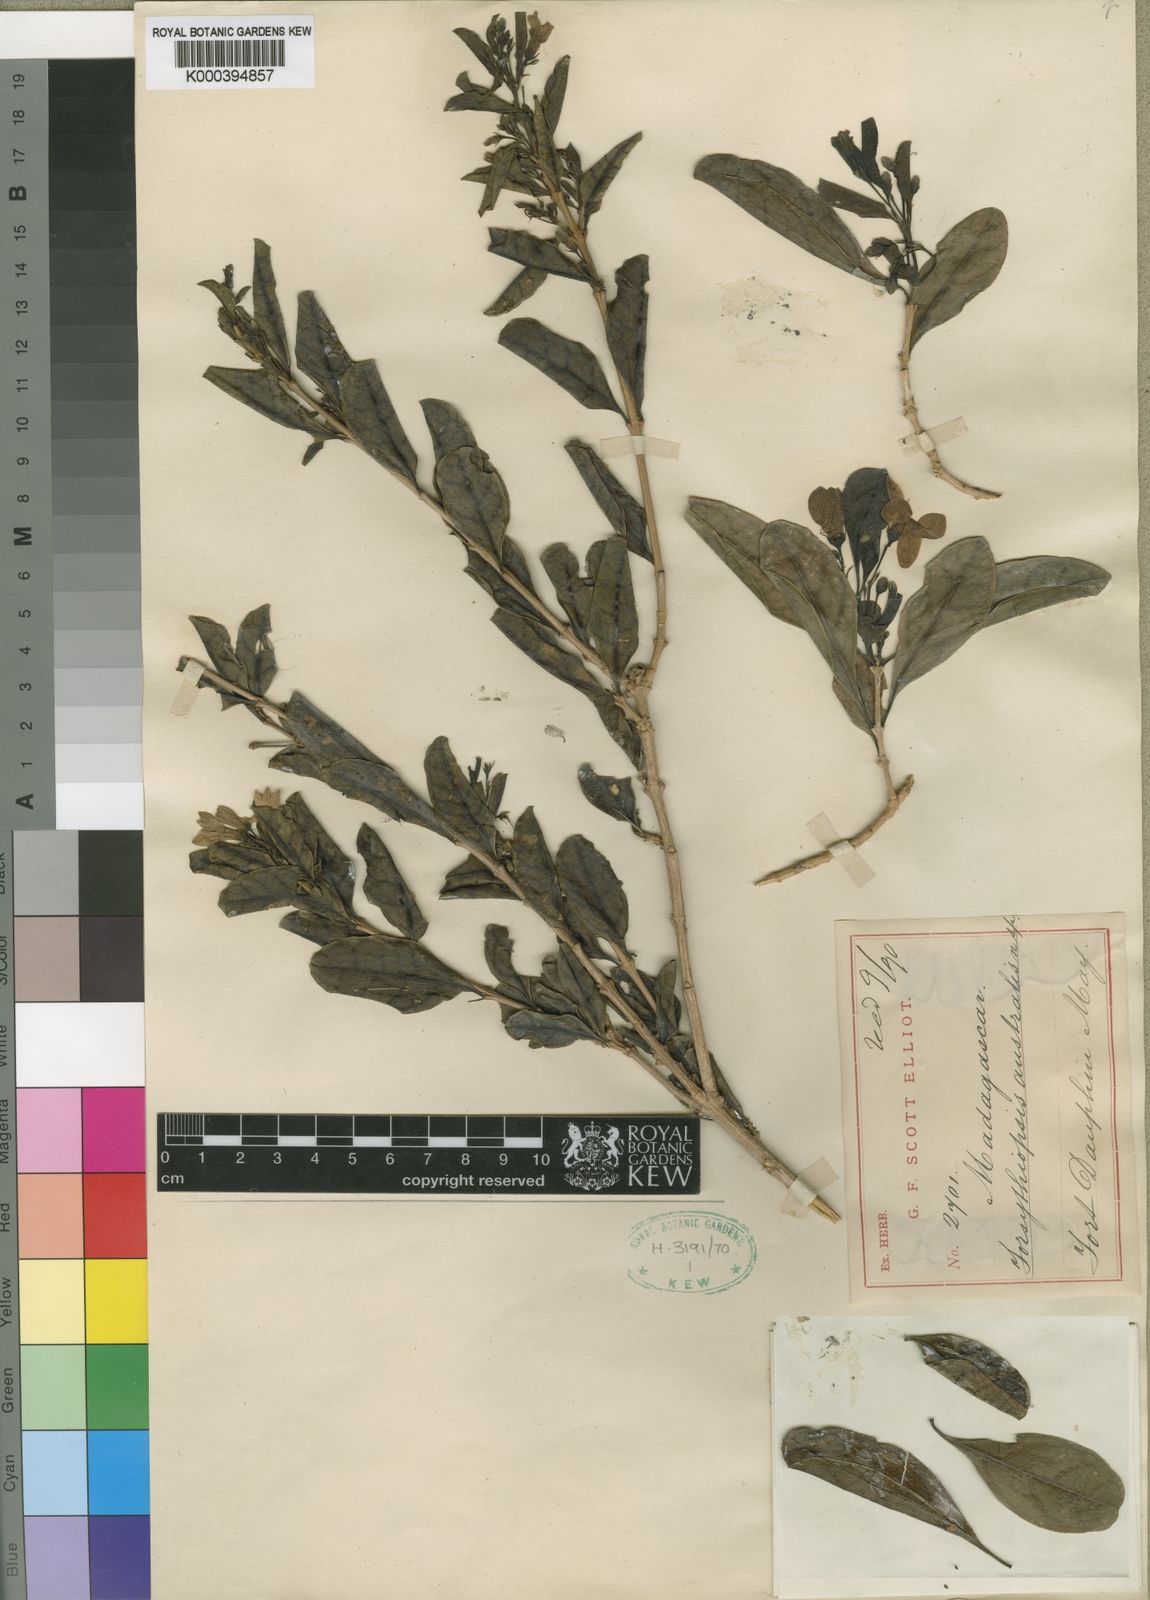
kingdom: Plantae
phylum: Tracheophyta
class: Magnoliopsida
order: Lamiales
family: Acanthaceae
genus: Oplonia
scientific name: Oplonia vincoides
